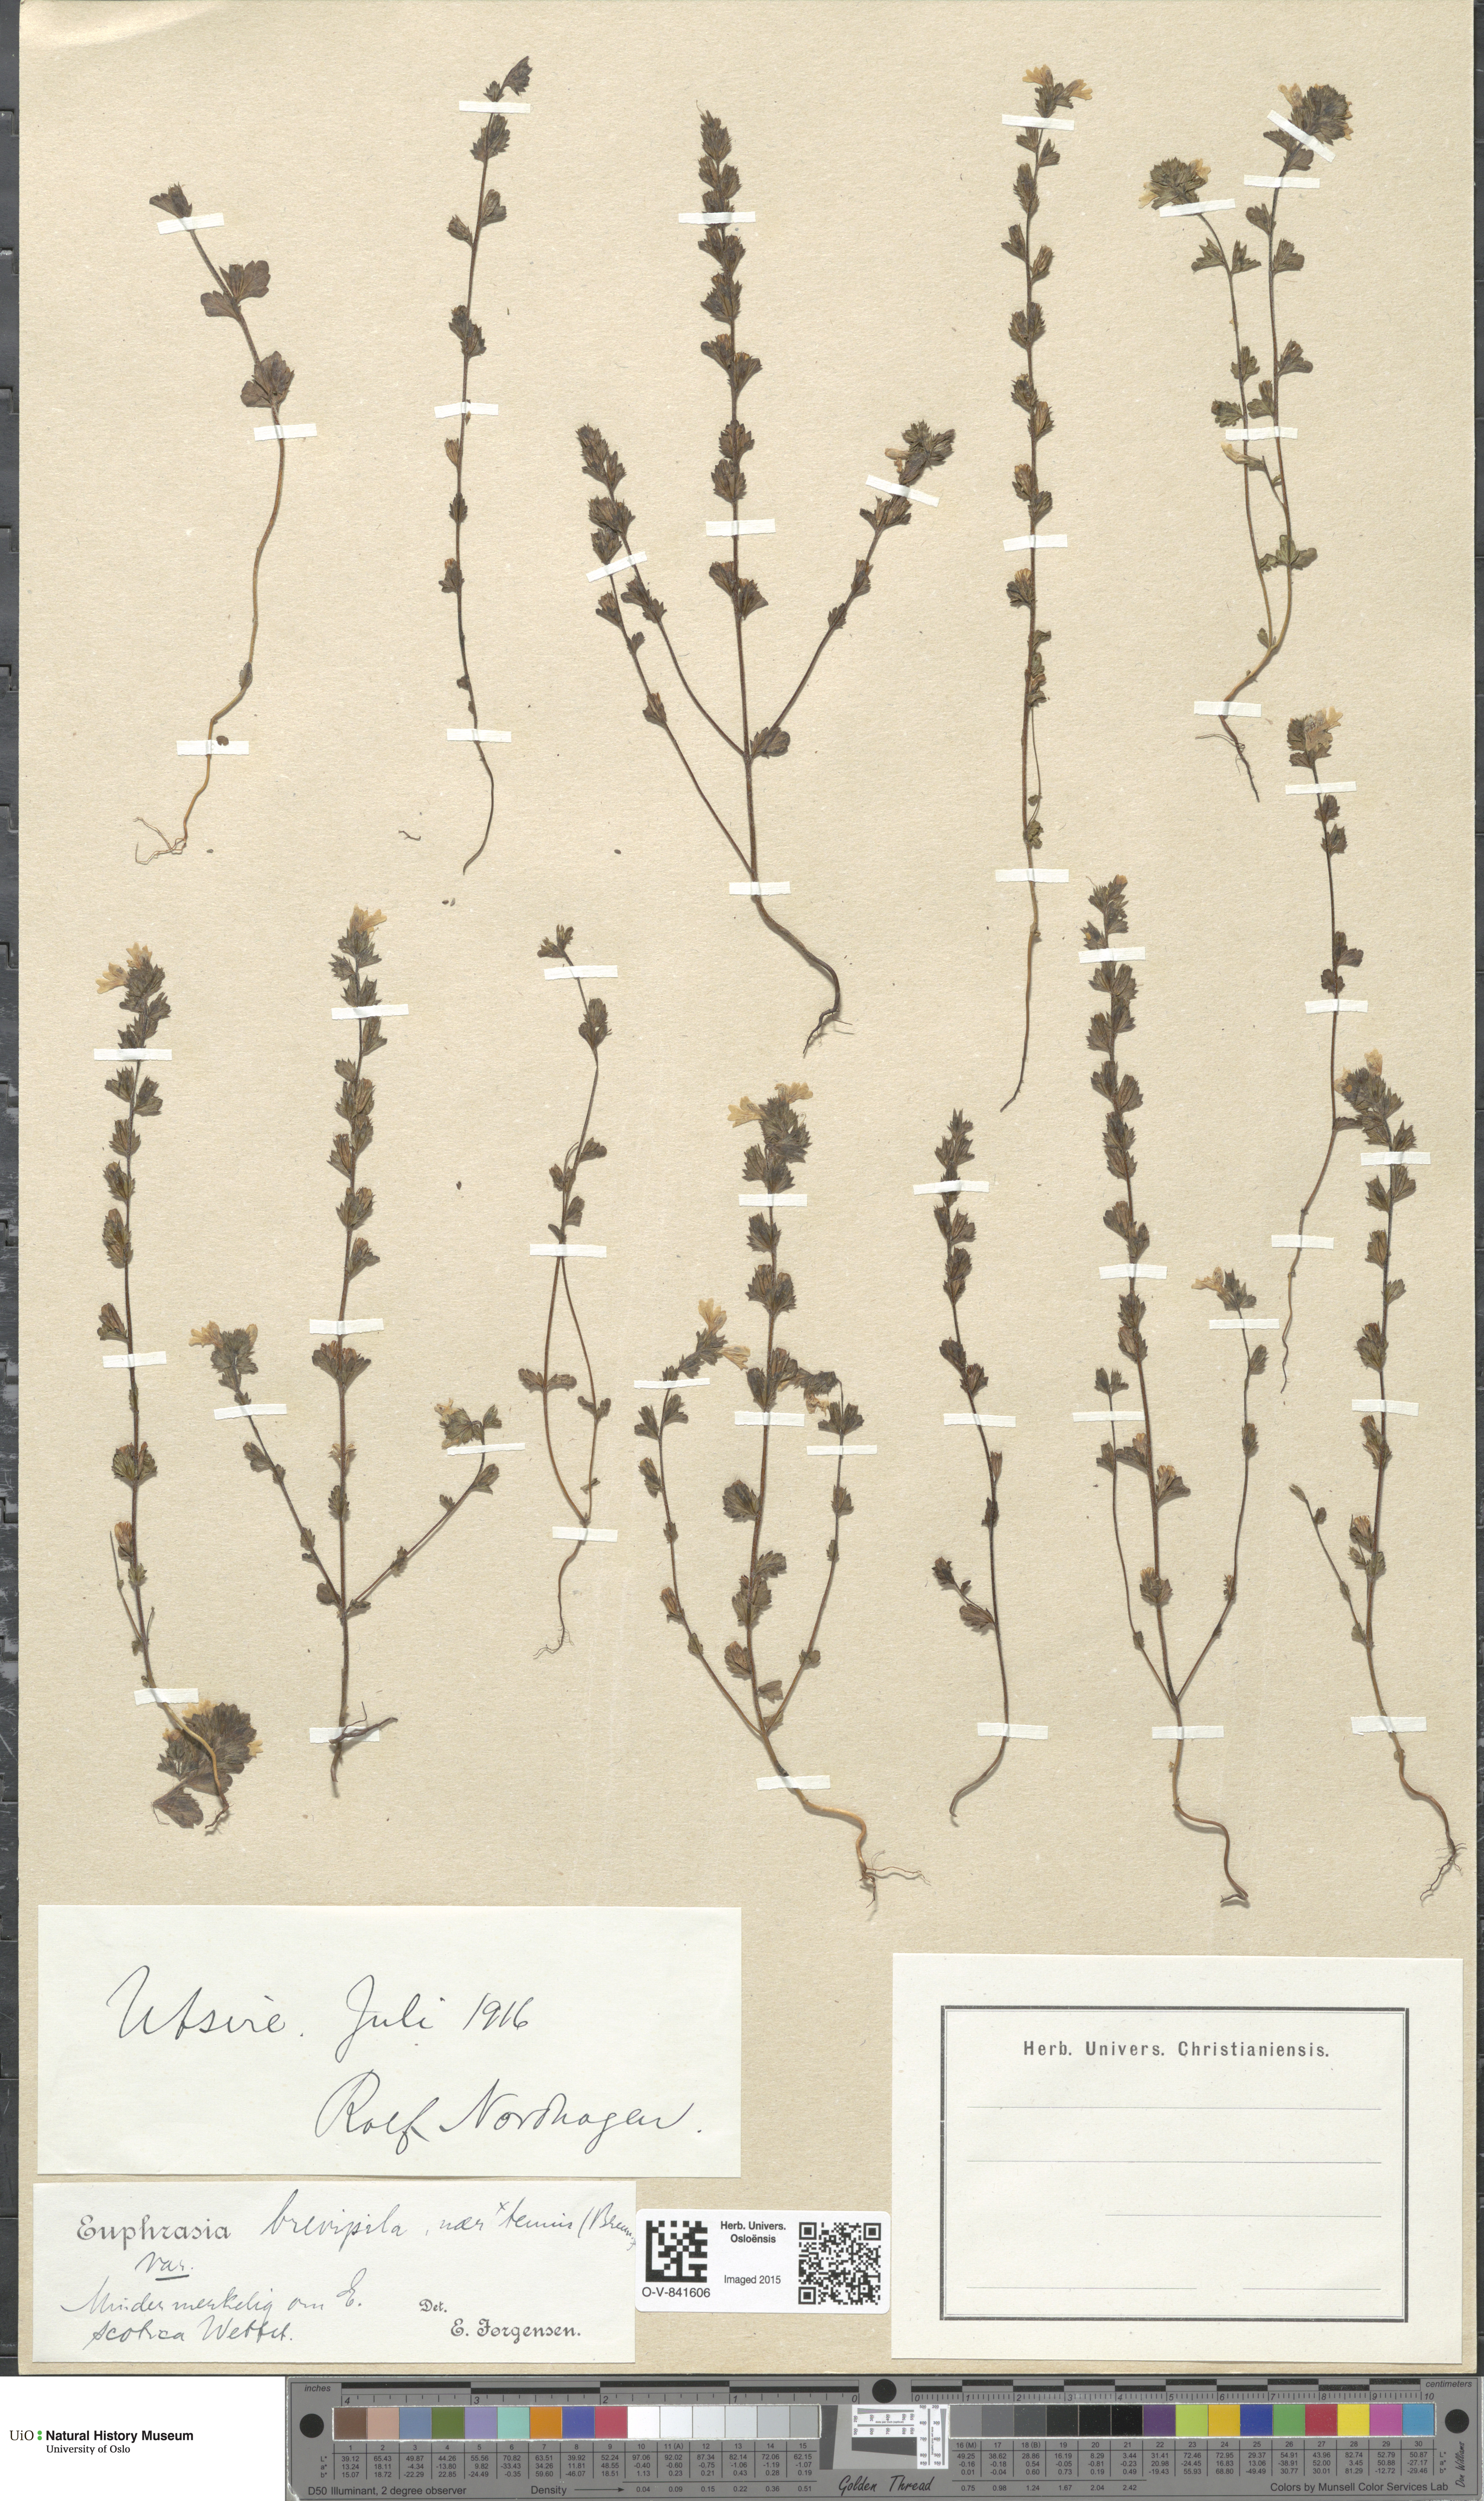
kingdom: Plantae
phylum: Tracheophyta
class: Magnoliopsida
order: Lamiales
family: Orobanchaceae
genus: Euphrasia
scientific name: Euphrasia vernalis
